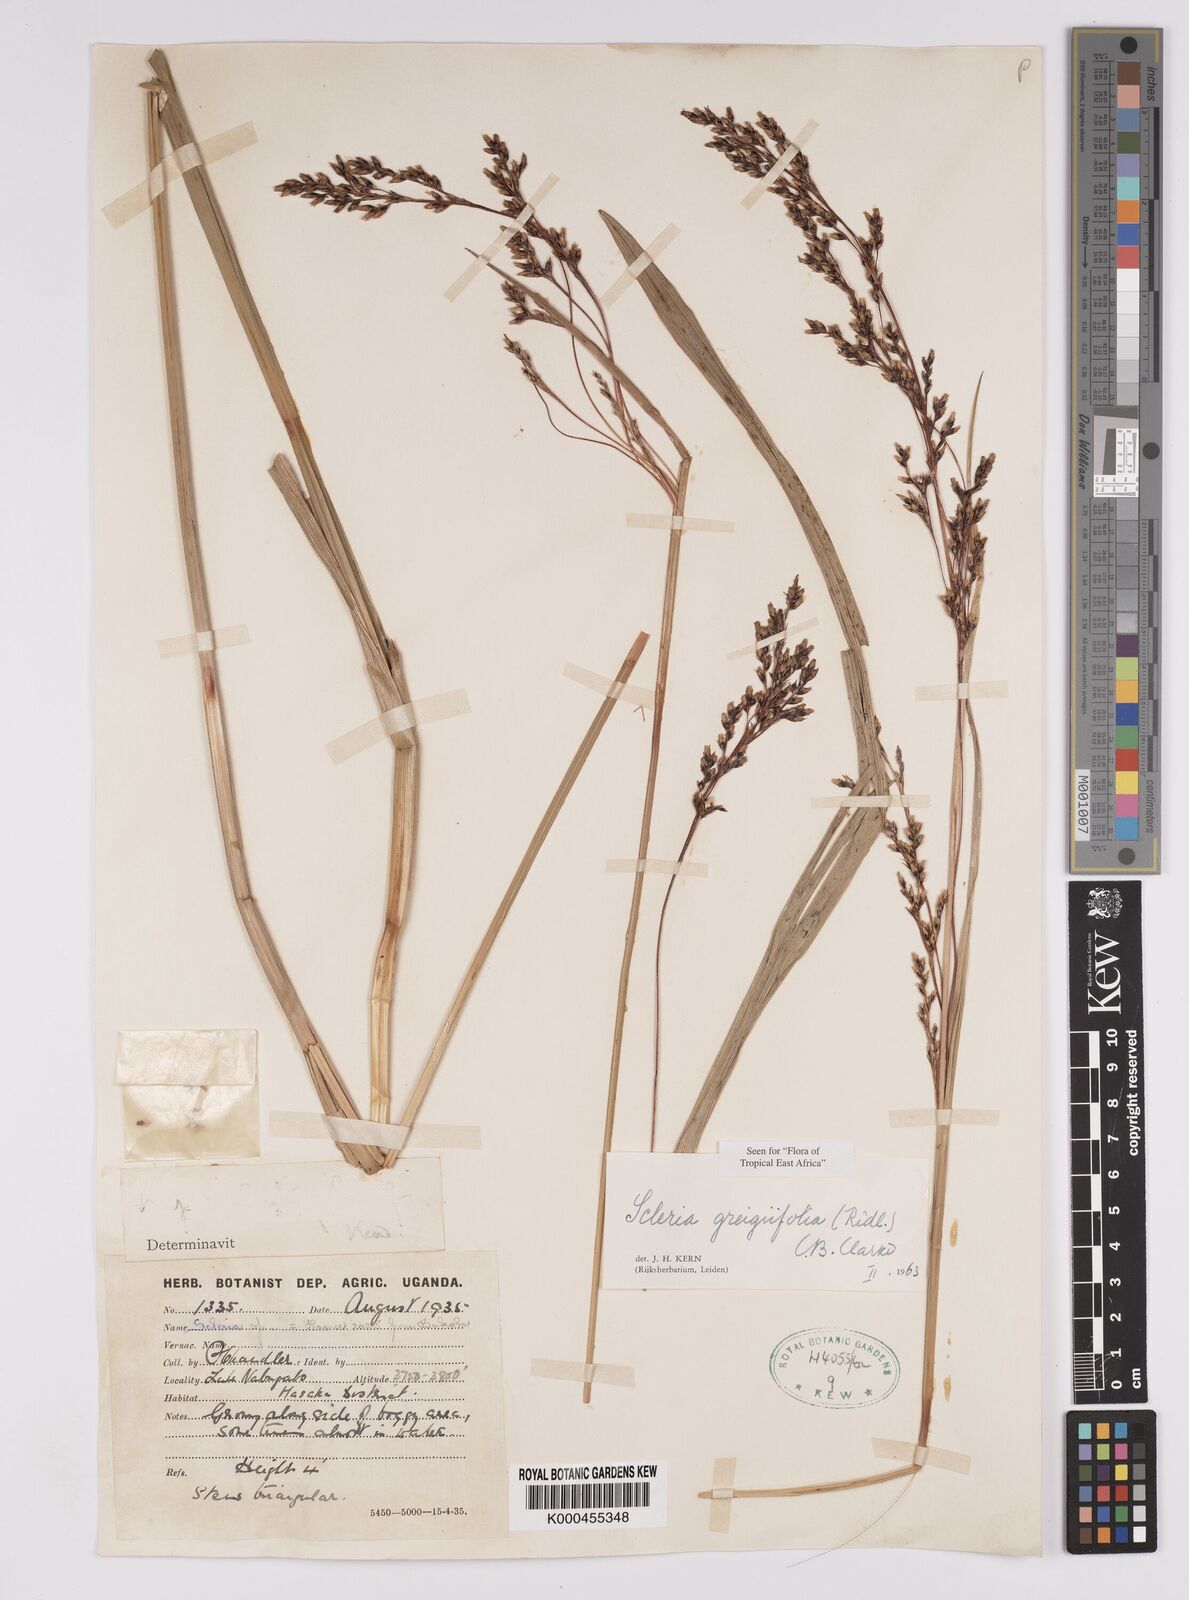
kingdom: Plantae
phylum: Tracheophyta
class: Liliopsida
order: Poales
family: Cyperaceae
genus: Scleria
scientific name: Scleria greigiifolia
